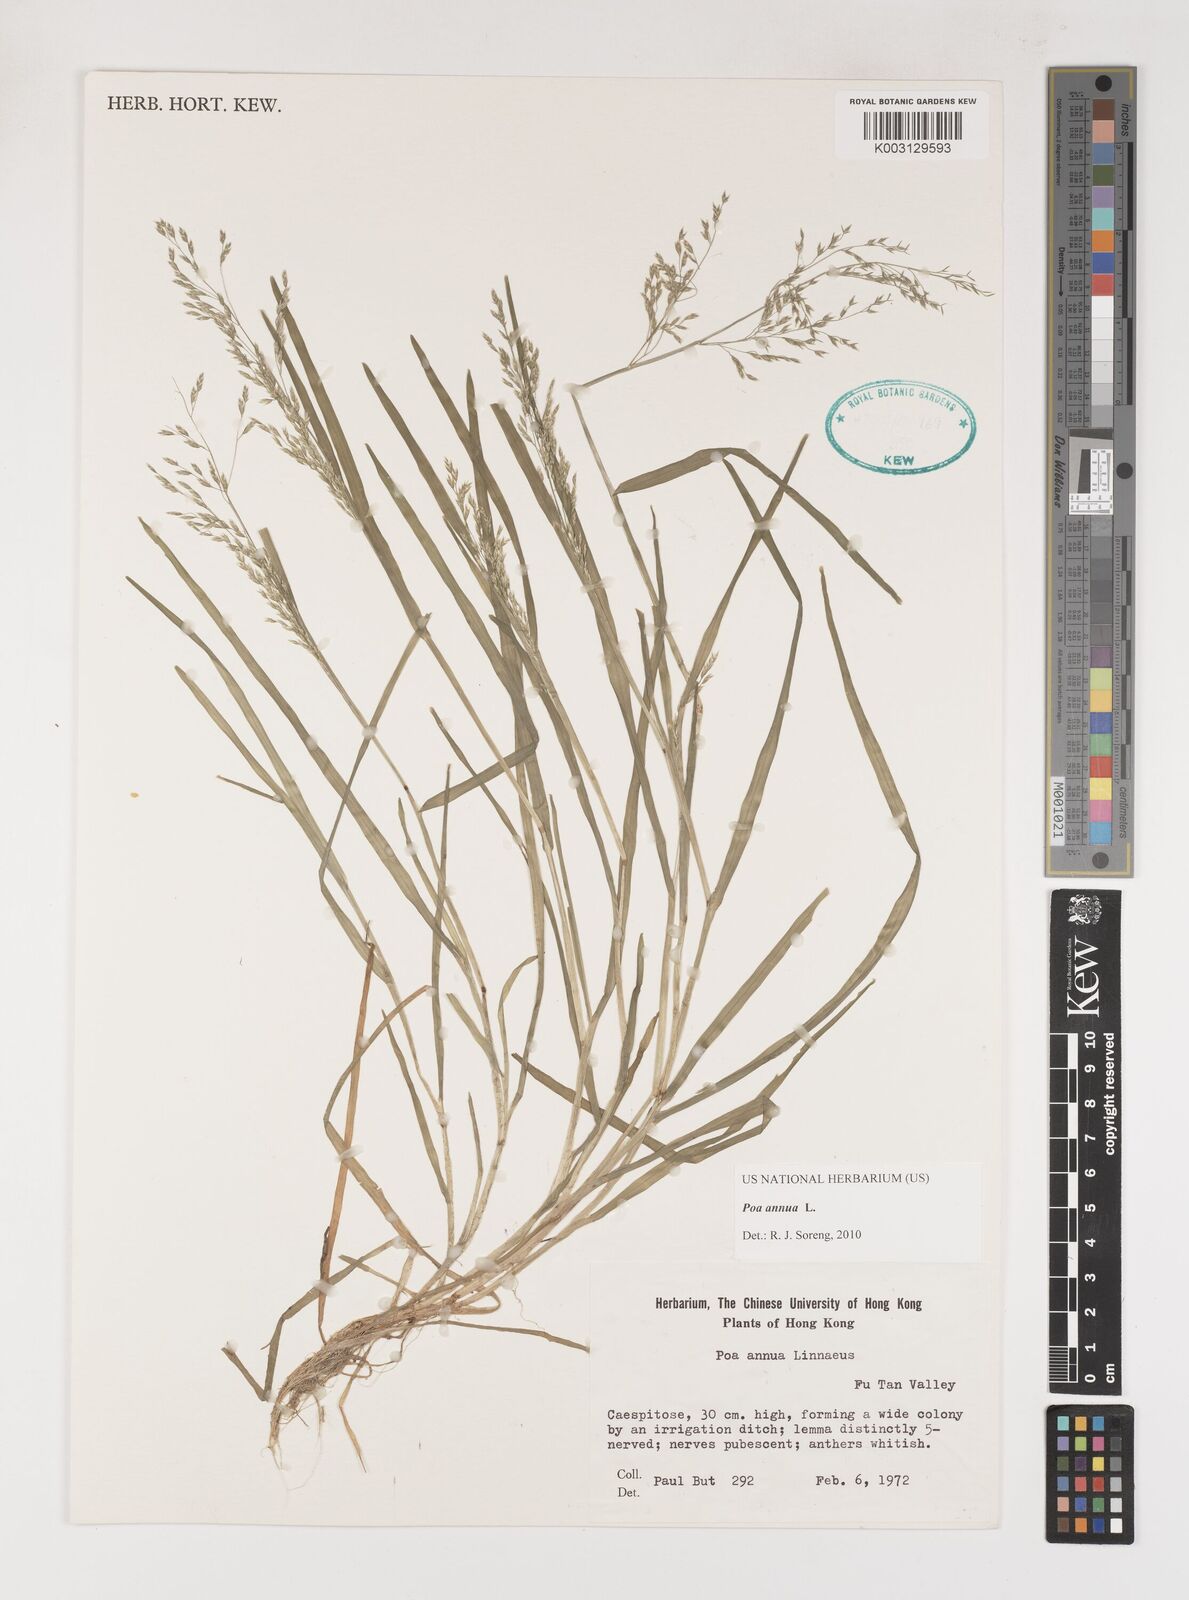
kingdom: Plantae
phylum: Tracheophyta
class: Liliopsida
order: Poales
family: Poaceae
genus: Poa
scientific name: Poa annua
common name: Annual bluegrass
